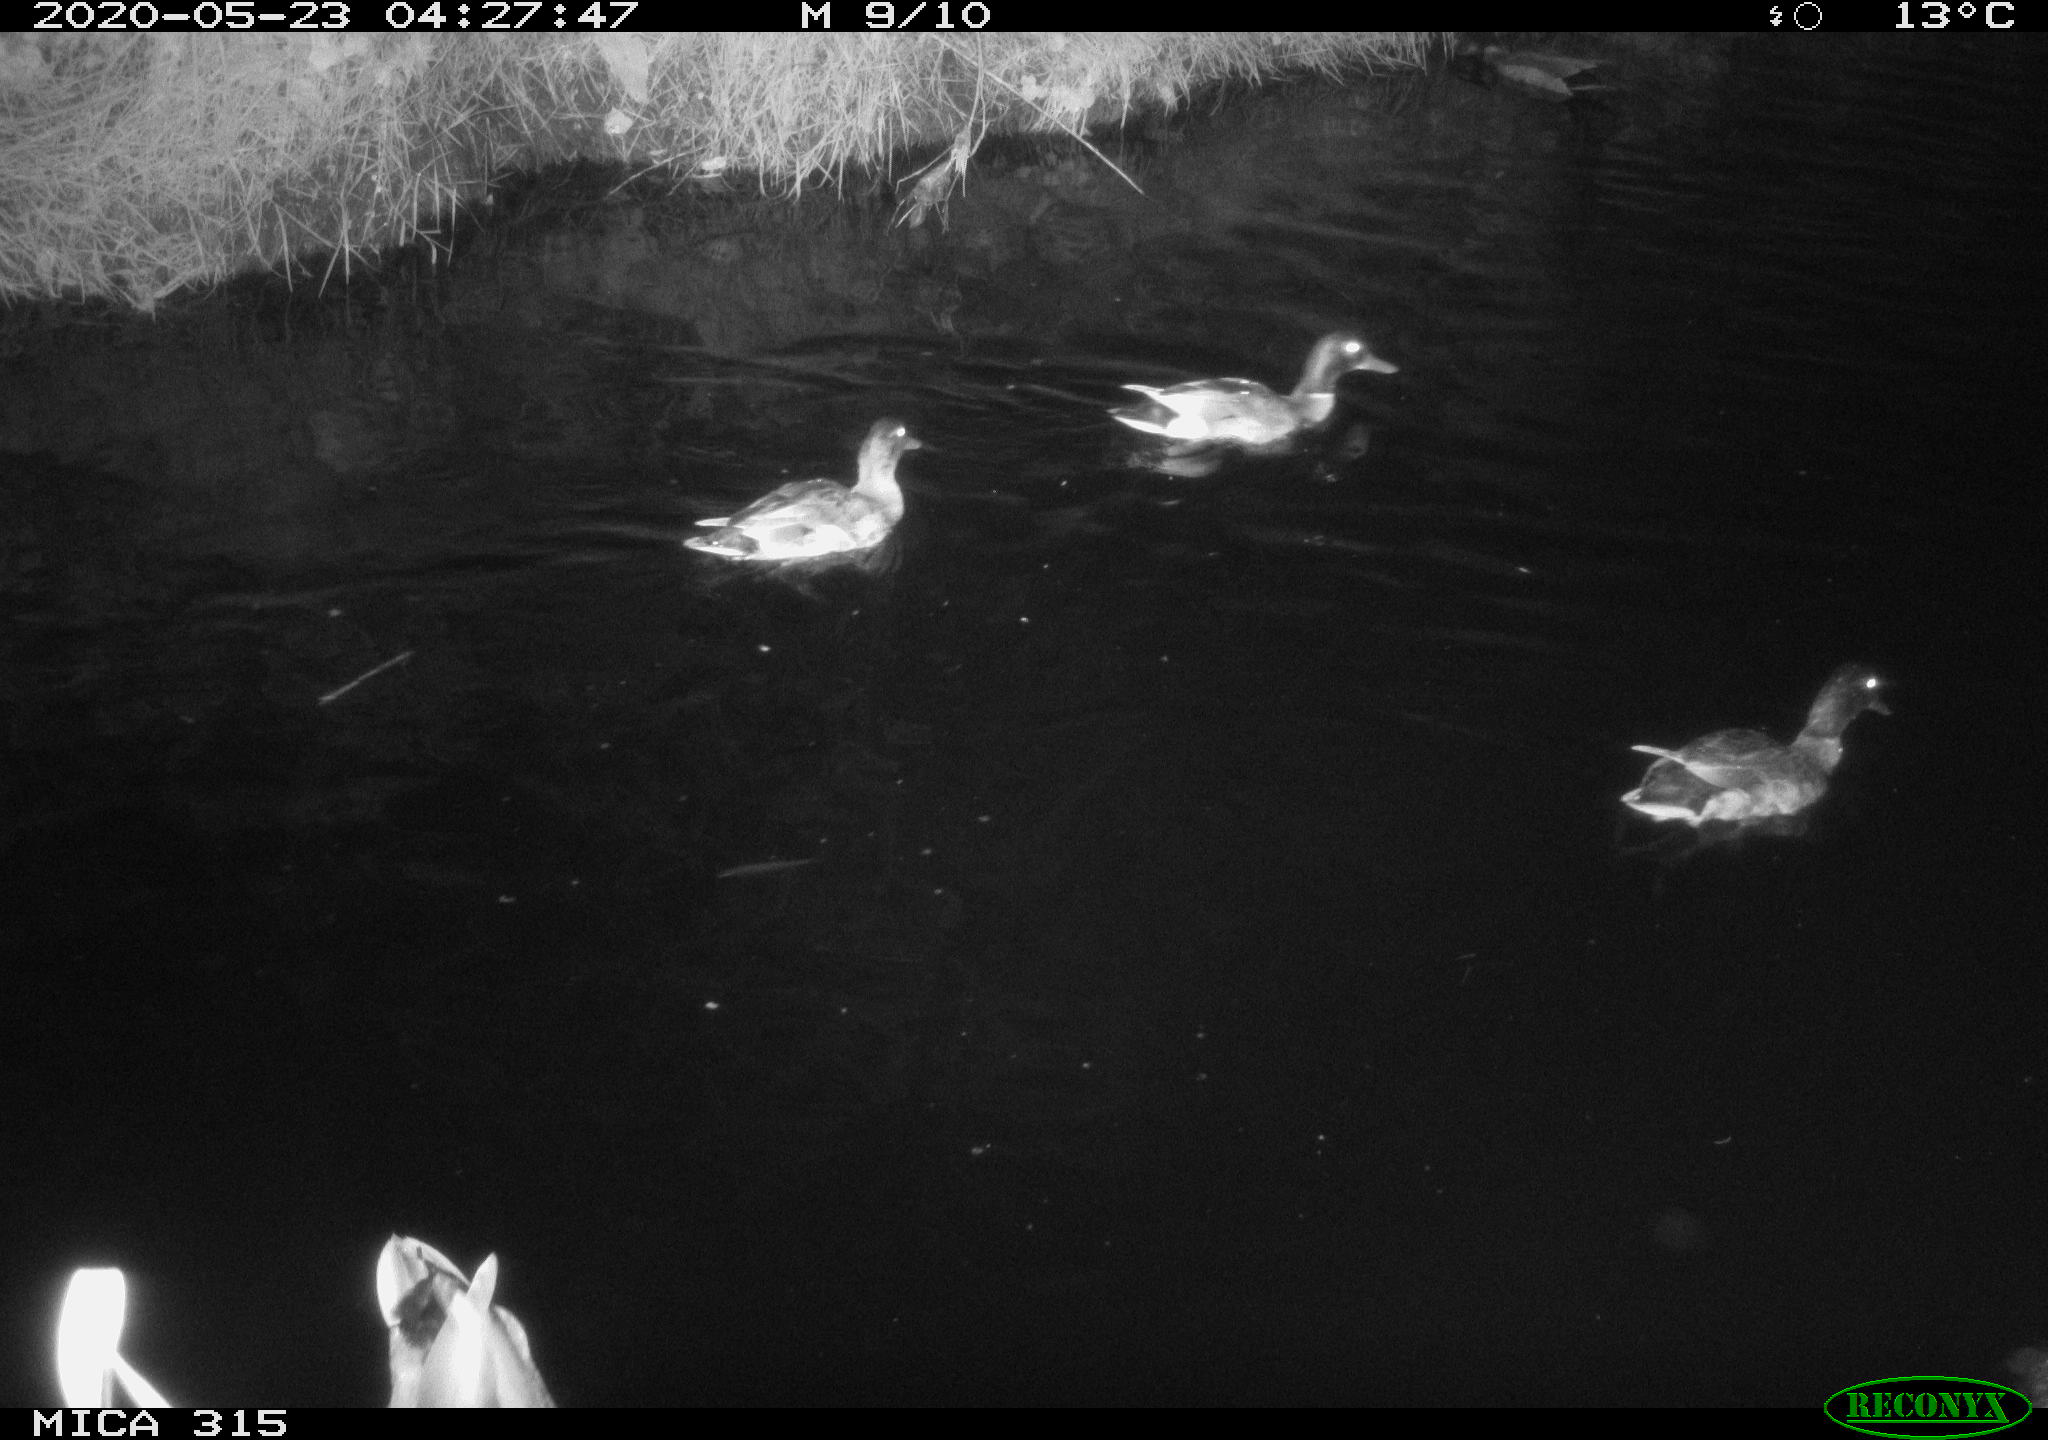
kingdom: Animalia
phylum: Chordata
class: Aves
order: Anseriformes
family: Anatidae
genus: Anas
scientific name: Anas platyrhynchos
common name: Mallard
